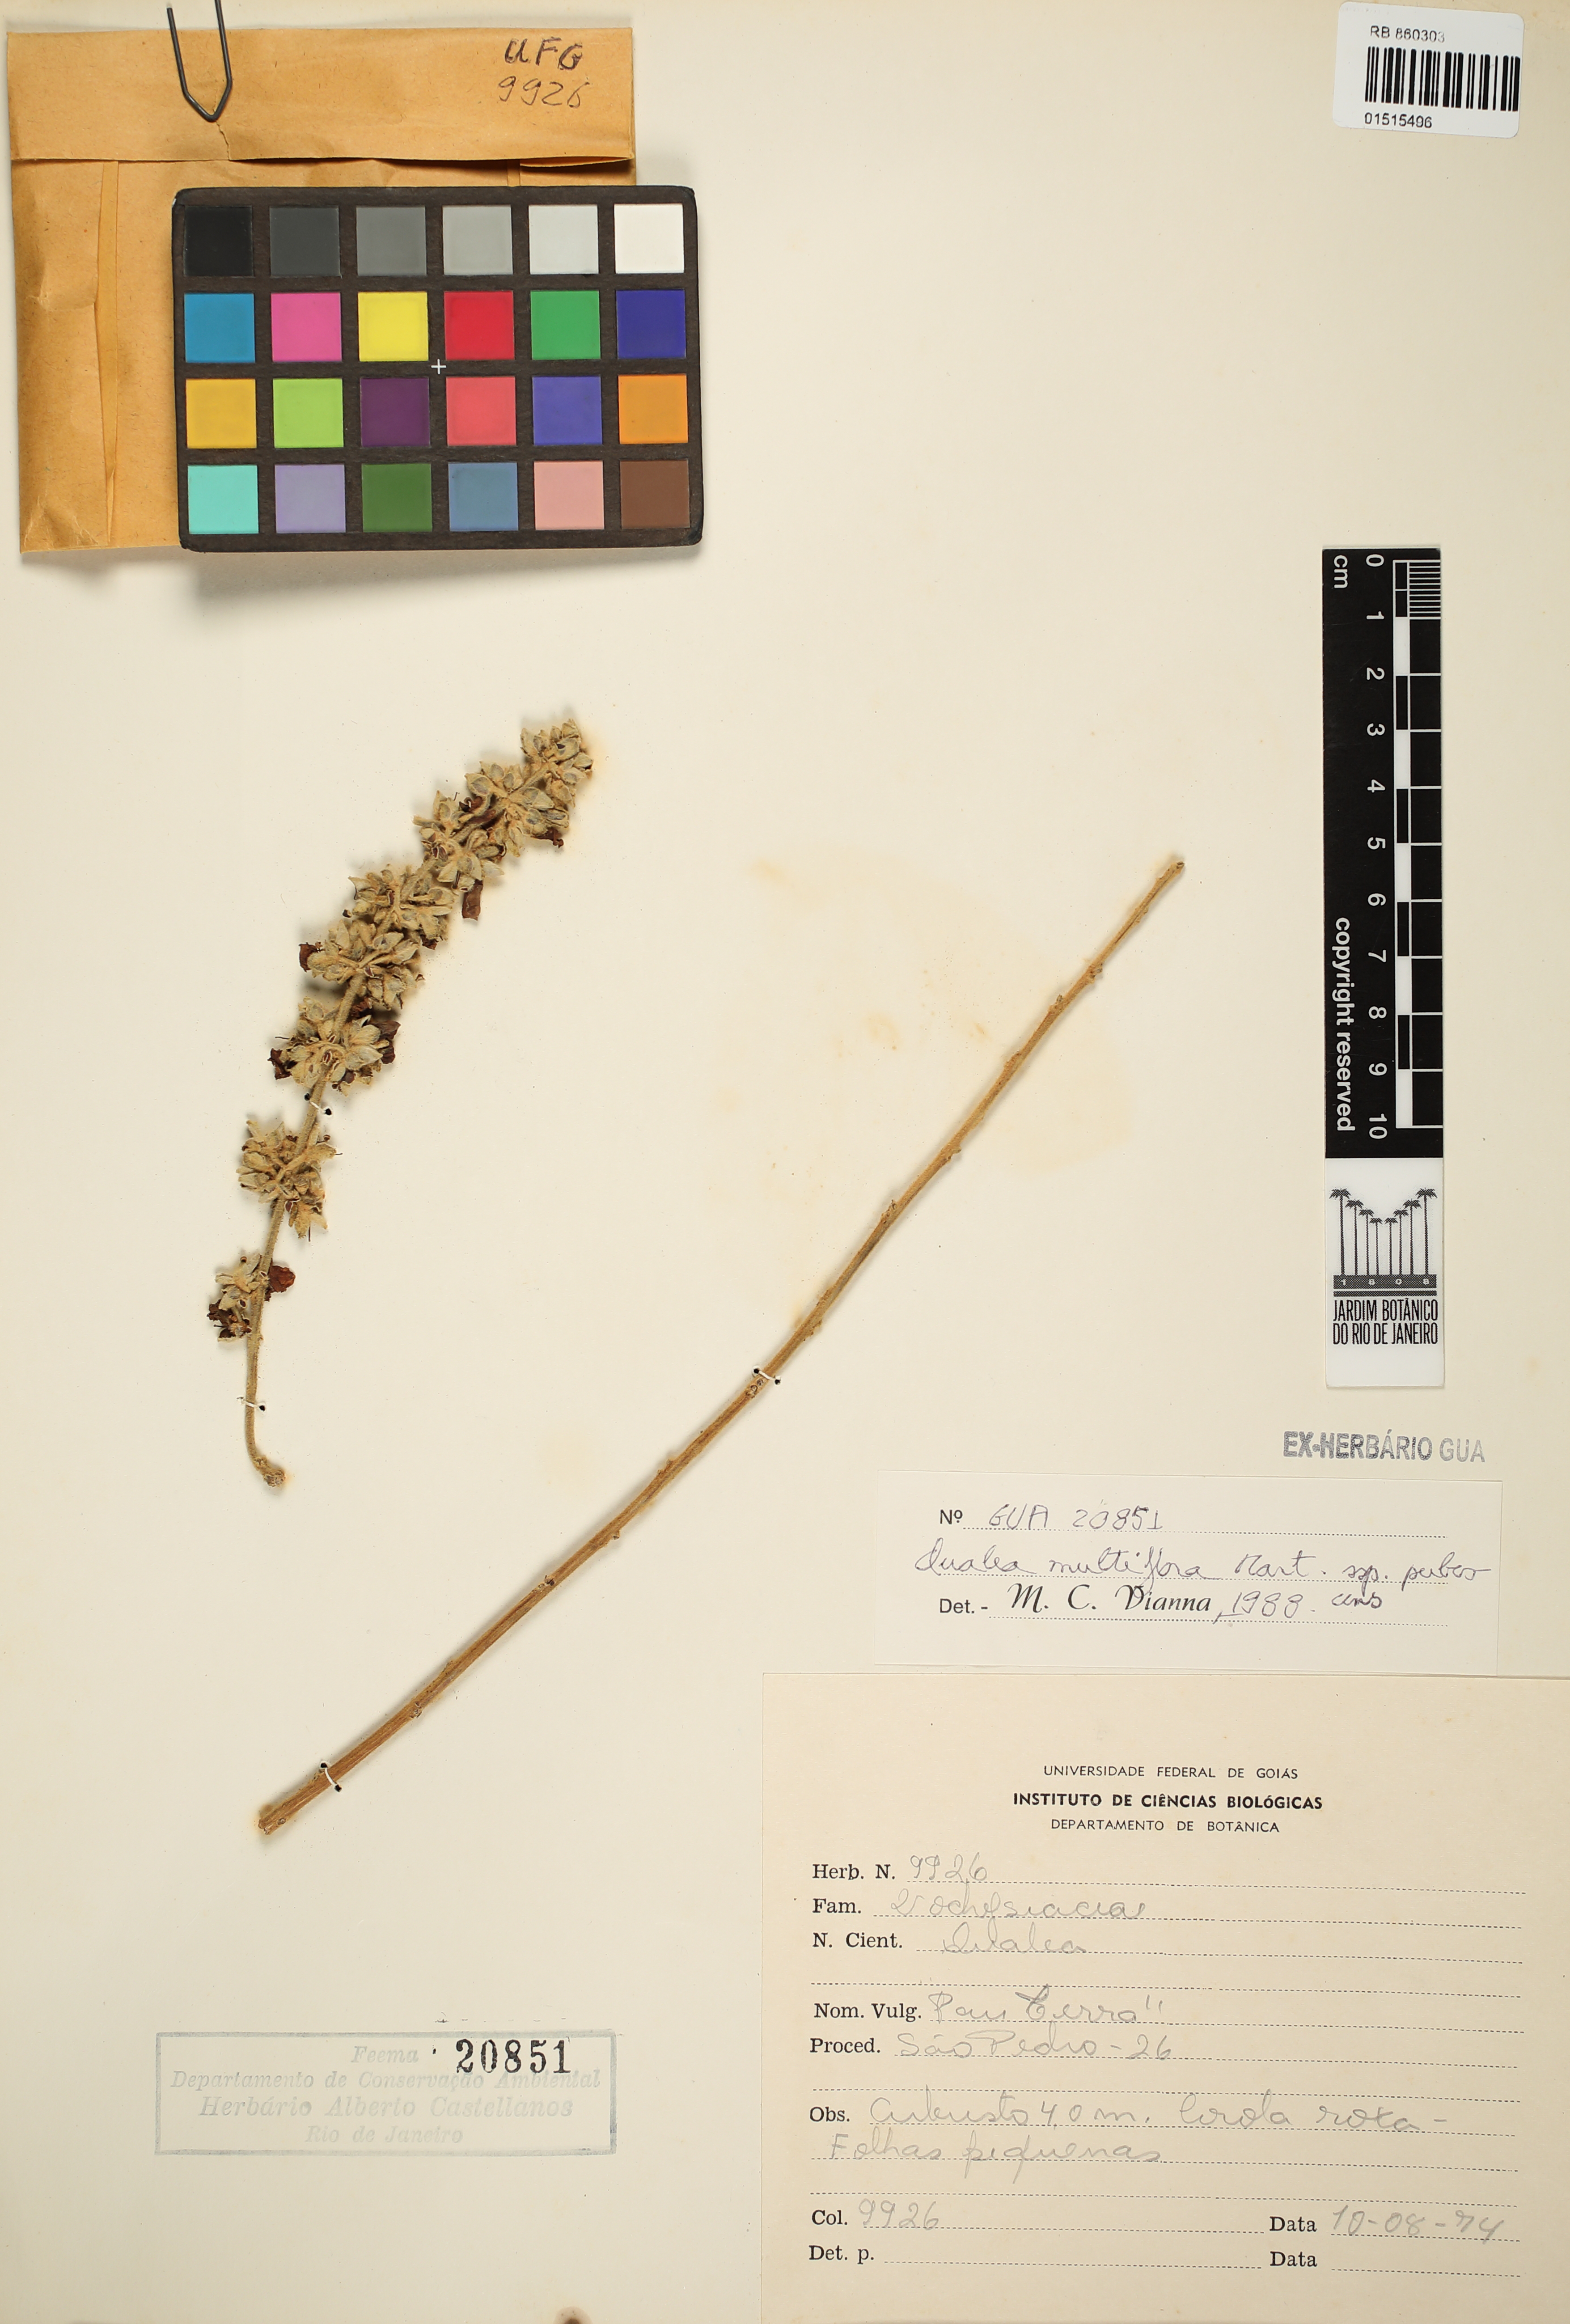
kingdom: Plantae
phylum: Tracheophyta
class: Magnoliopsida
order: Myrtales
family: Vochysiaceae
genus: Qualea
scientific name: Qualea multiflora
